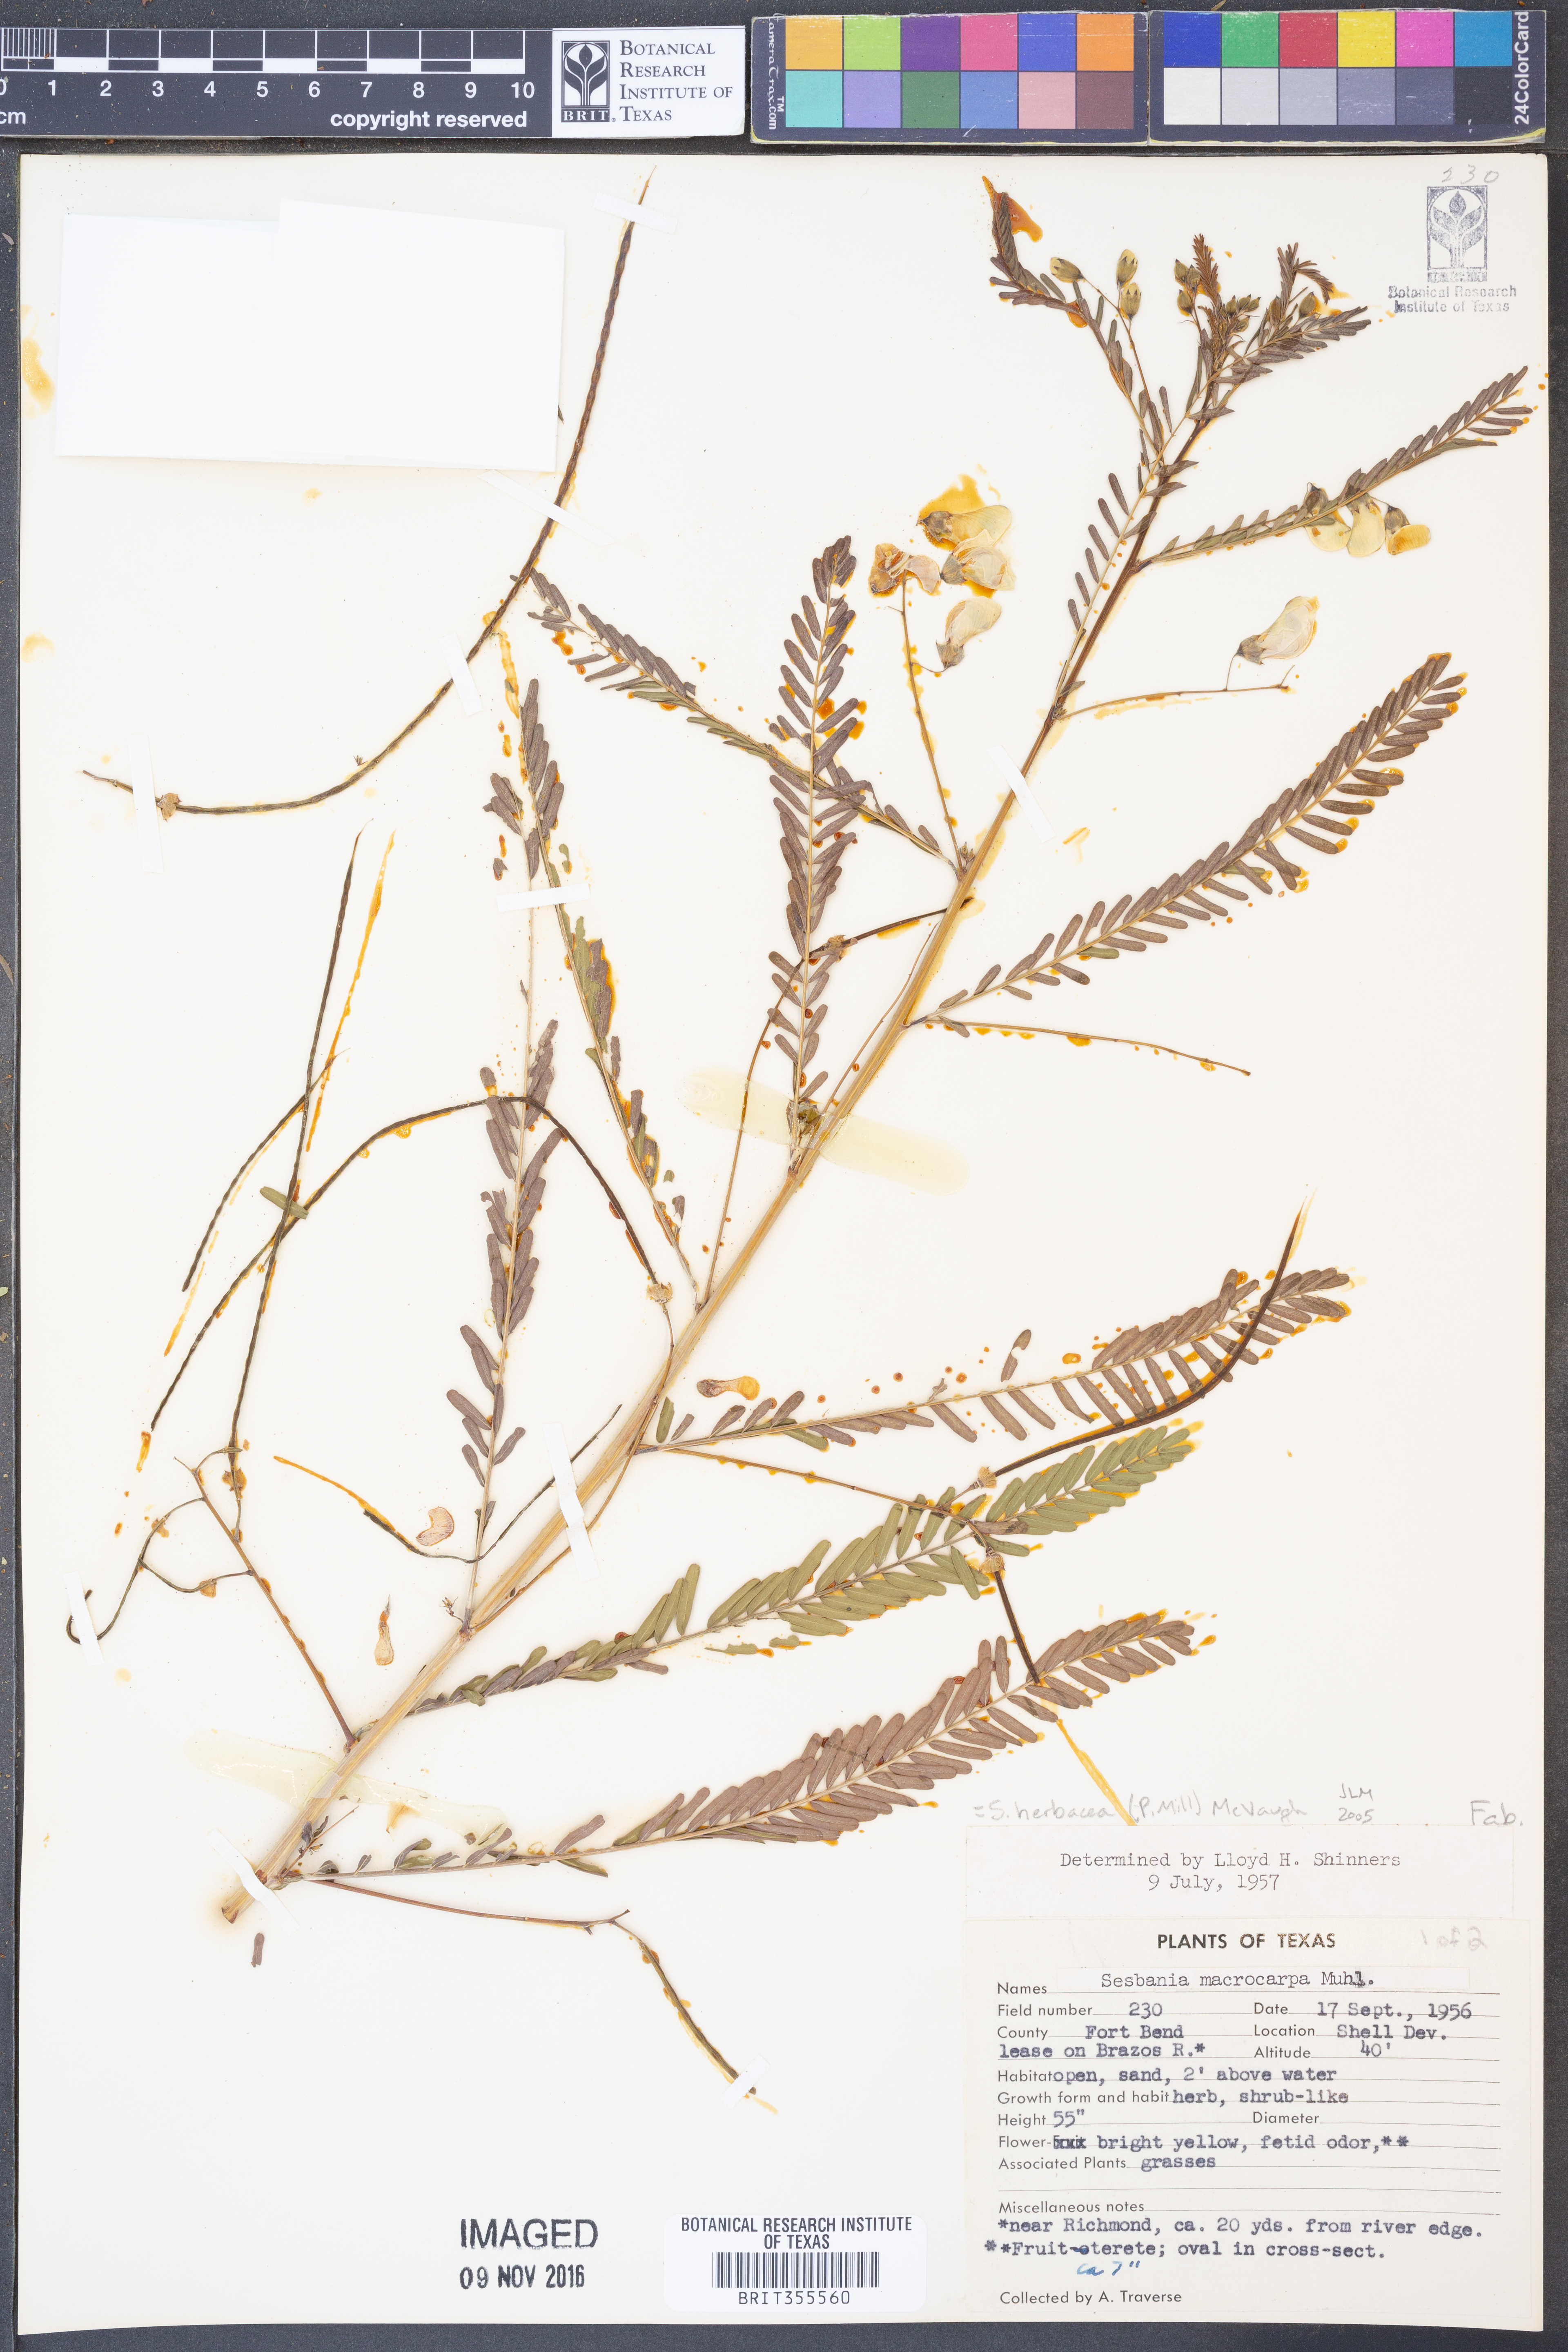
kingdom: Plantae
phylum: Tracheophyta
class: Magnoliopsida
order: Fabales
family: Fabaceae
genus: Sesbania
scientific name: Sesbania herbacea
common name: Bigpod sesbania
